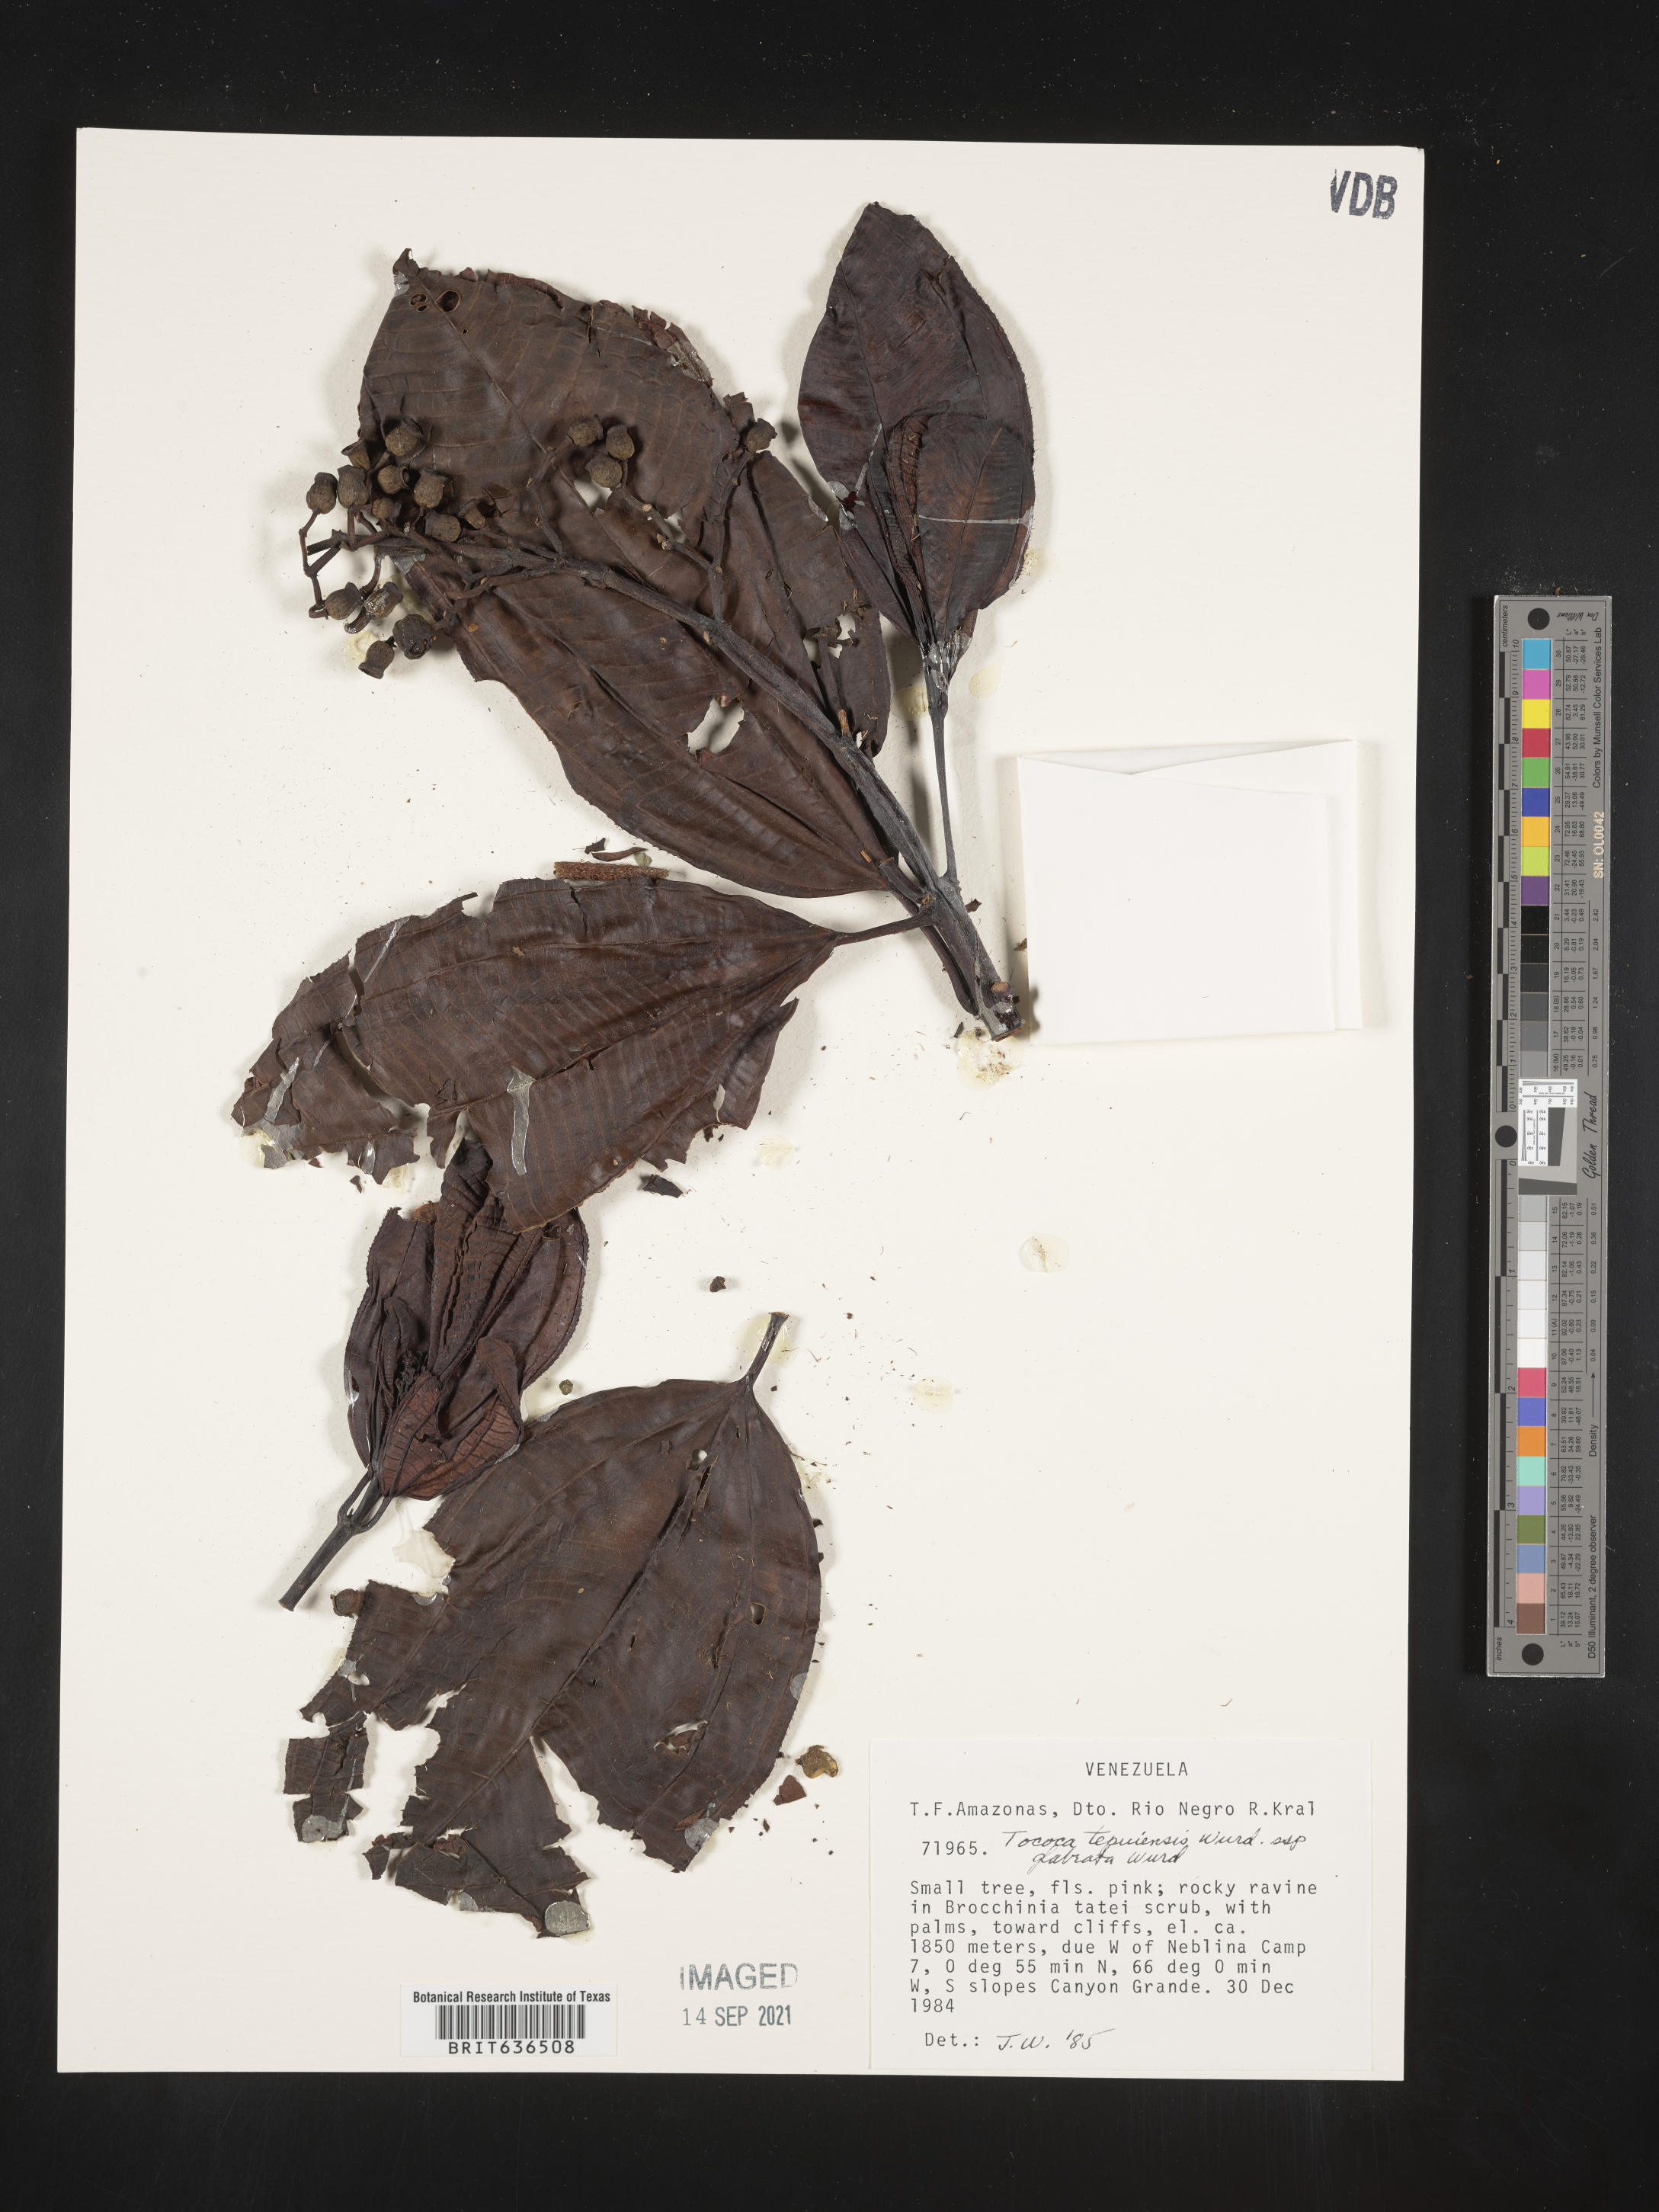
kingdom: Plantae
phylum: Tracheophyta
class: Magnoliopsida
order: Myrtales
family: Melastomataceae
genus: Tibouchina
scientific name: Tibouchina
